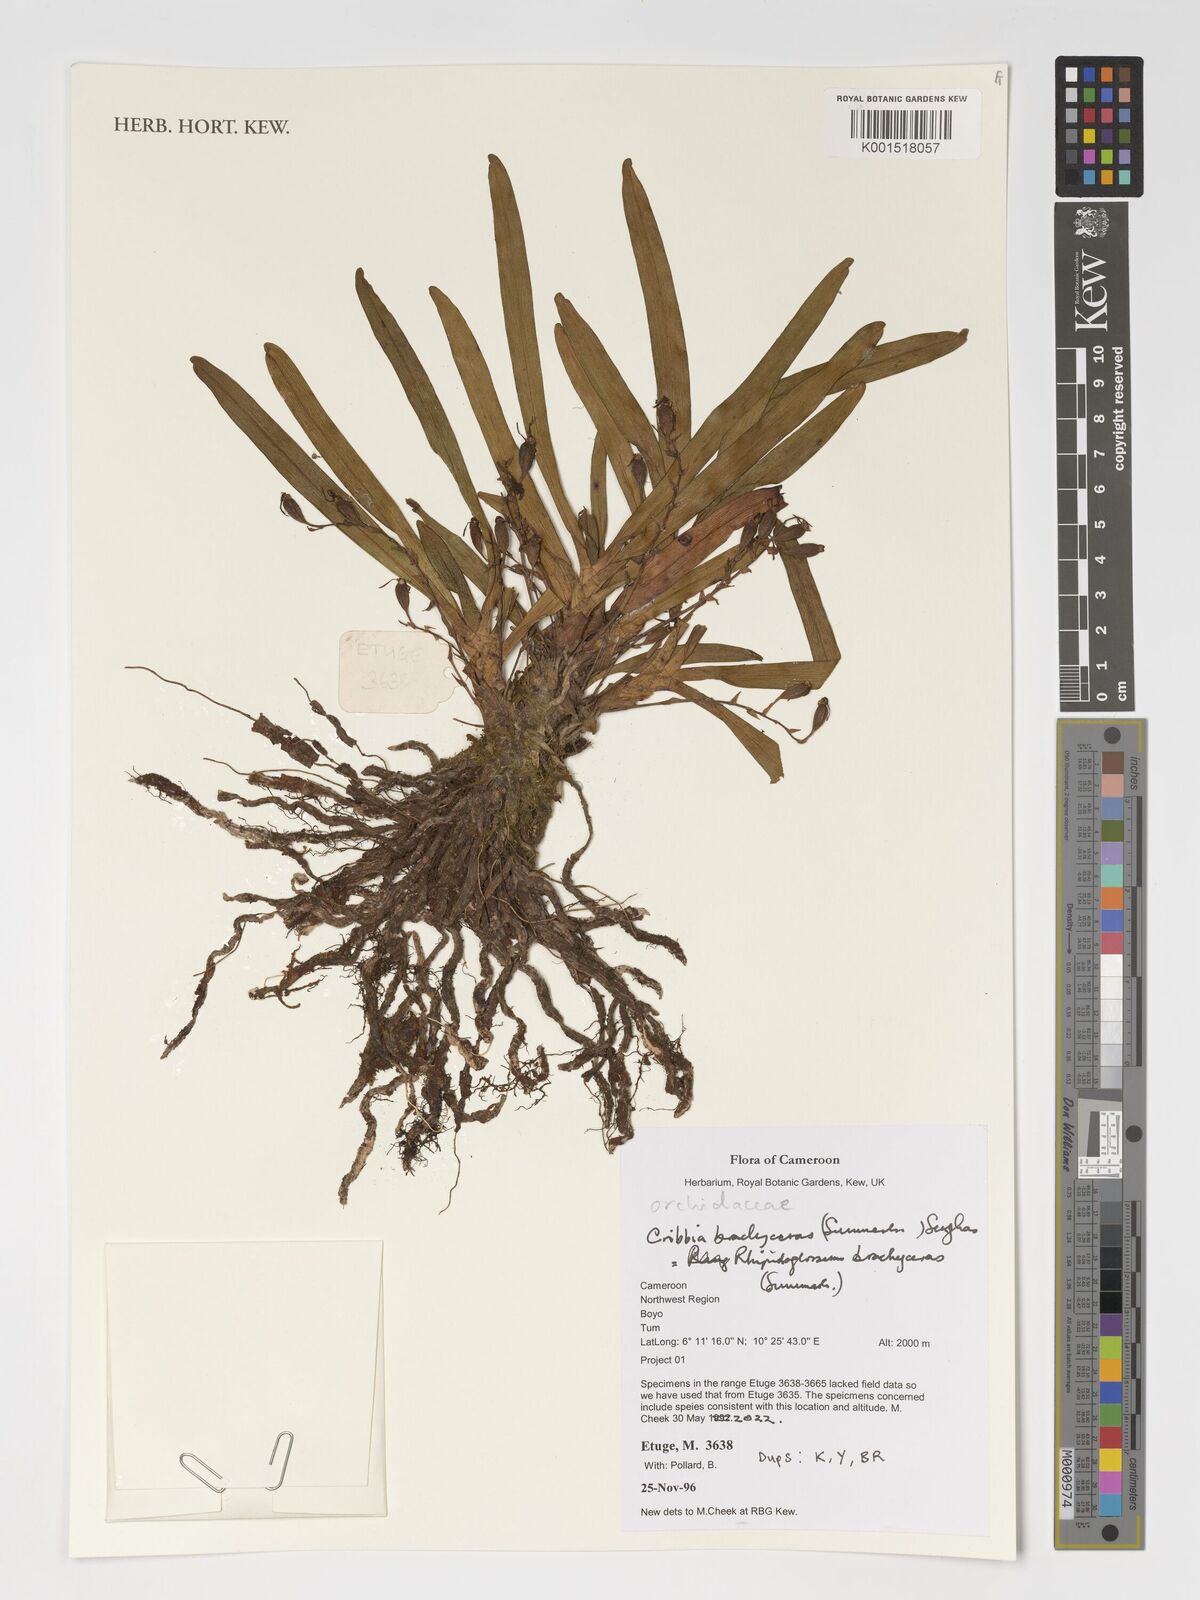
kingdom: Plantae
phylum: Tracheophyta
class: Liliopsida
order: Asparagales
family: Orchidaceae
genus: Rhipidoglossum
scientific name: Rhipidoglossum brachyceras
